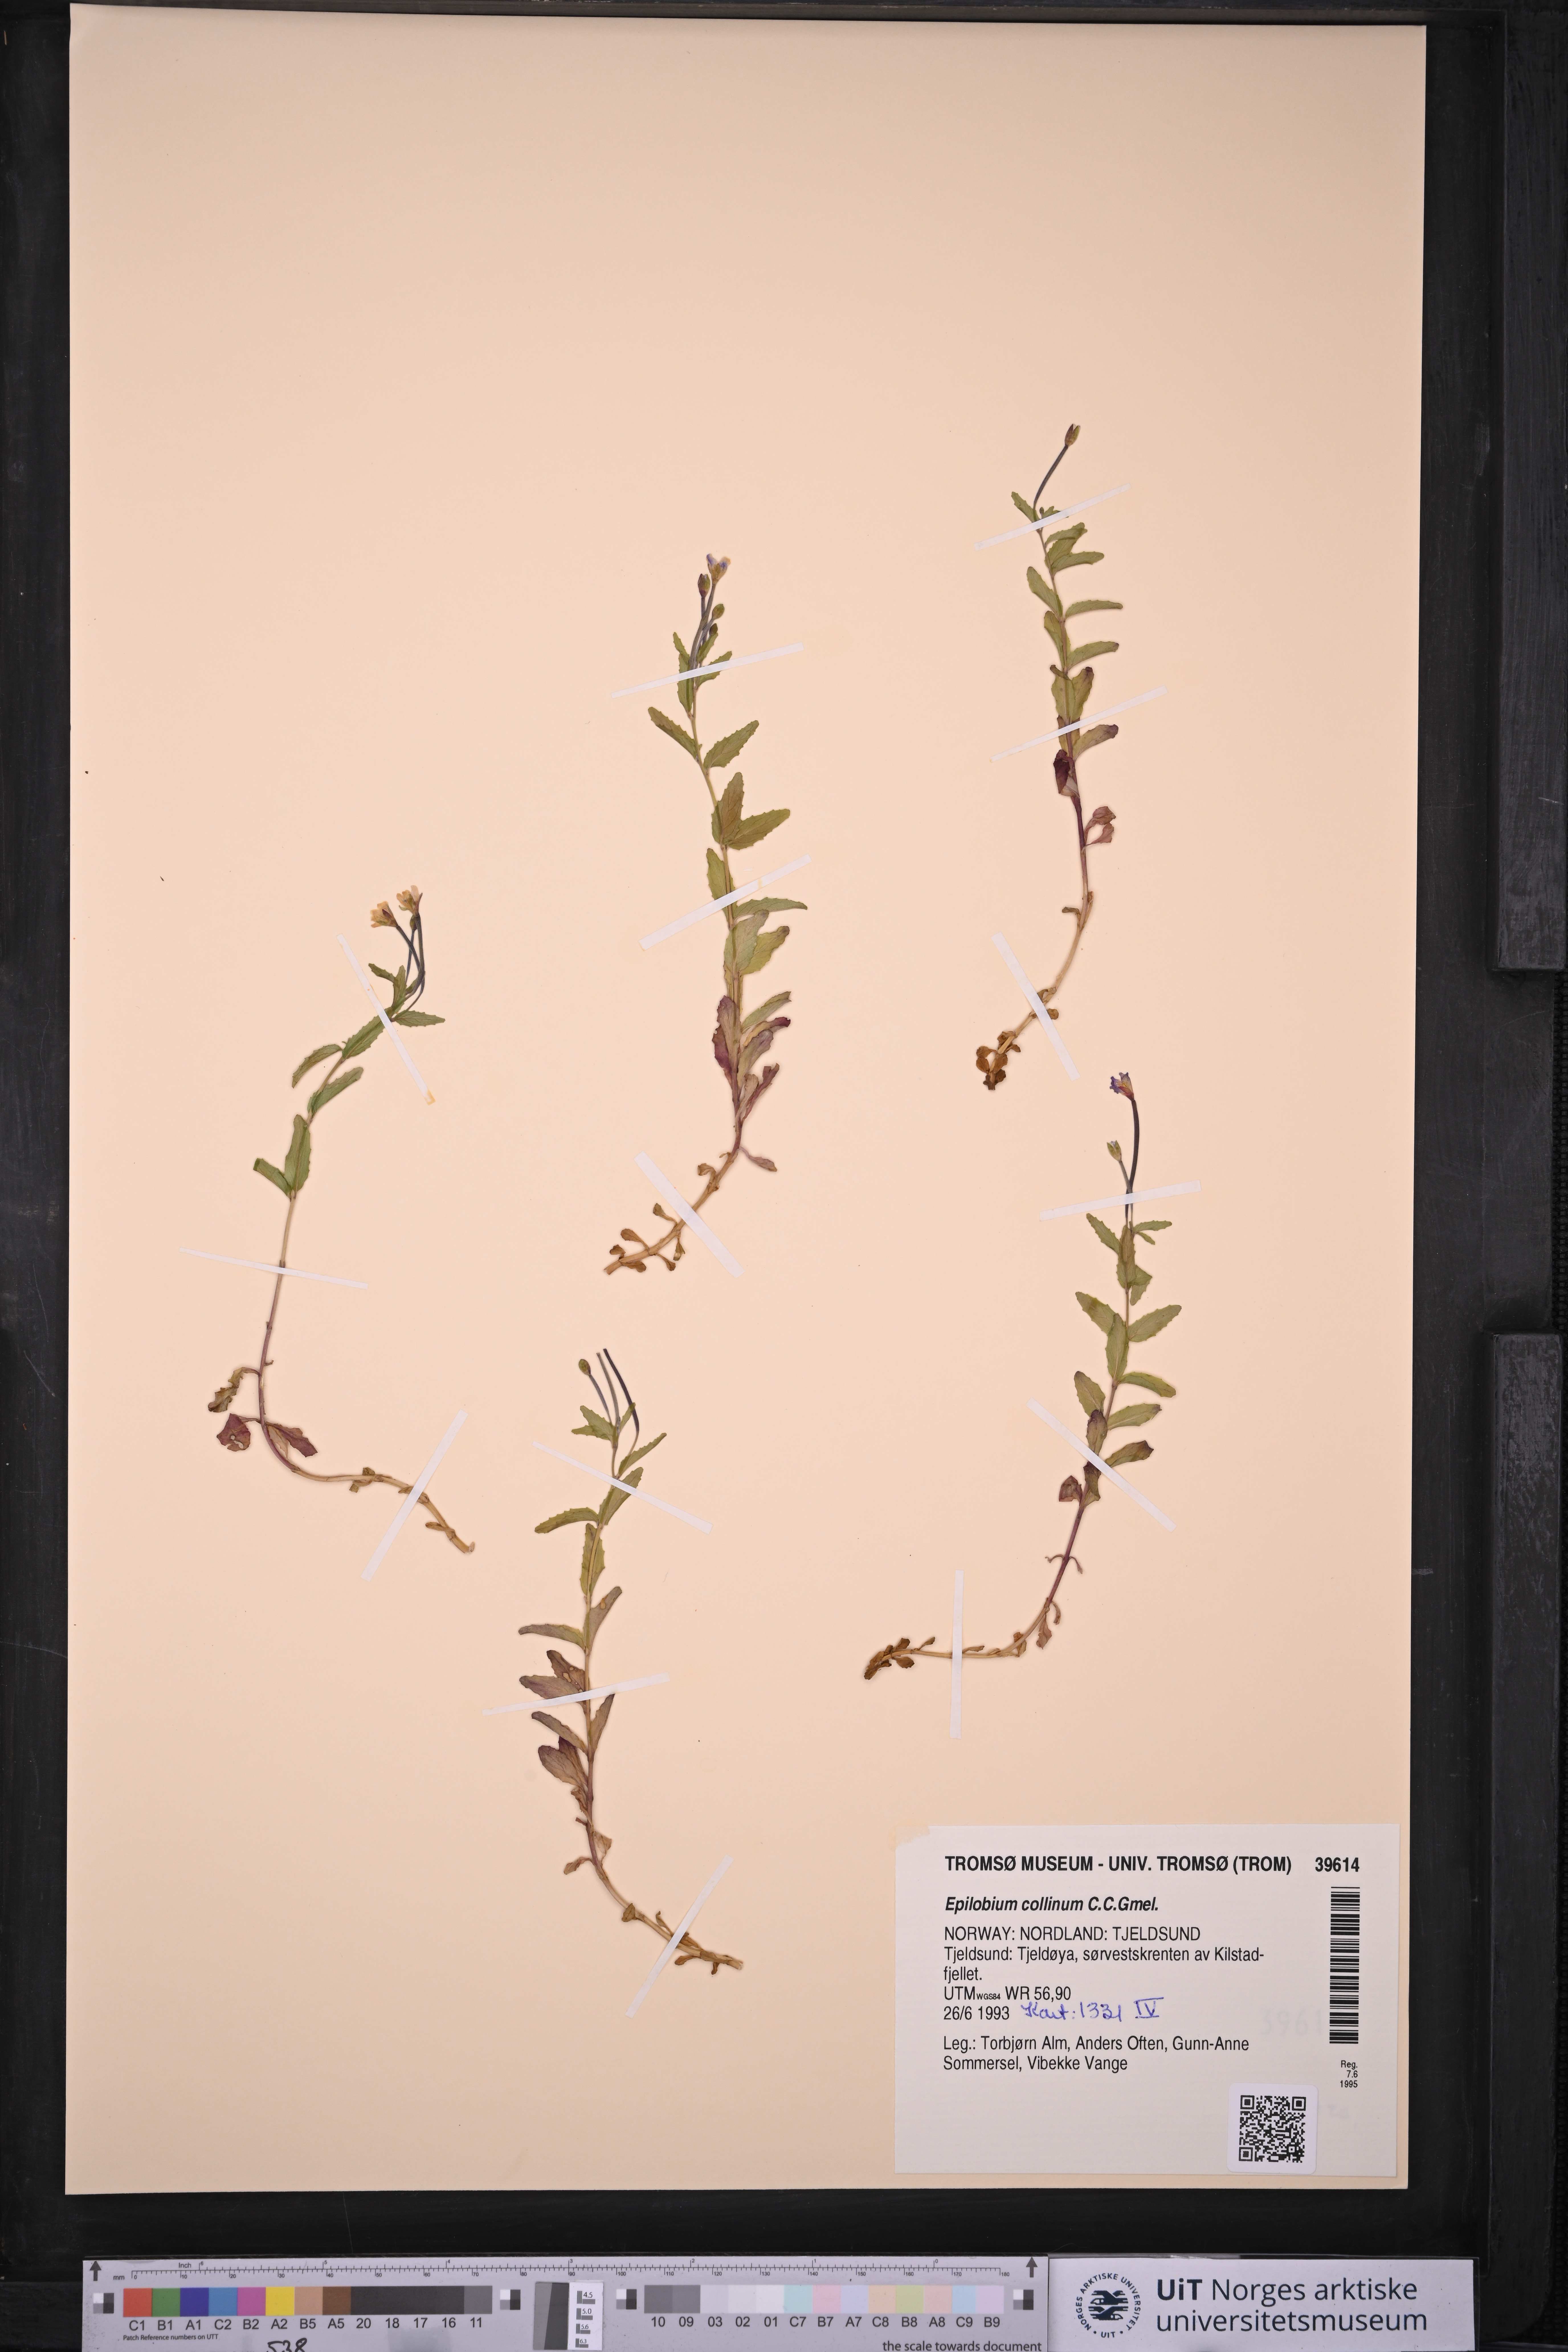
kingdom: Plantae
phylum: Tracheophyta
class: Magnoliopsida
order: Myrtales
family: Onagraceae
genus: Epilobium
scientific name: Epilobium collinum
